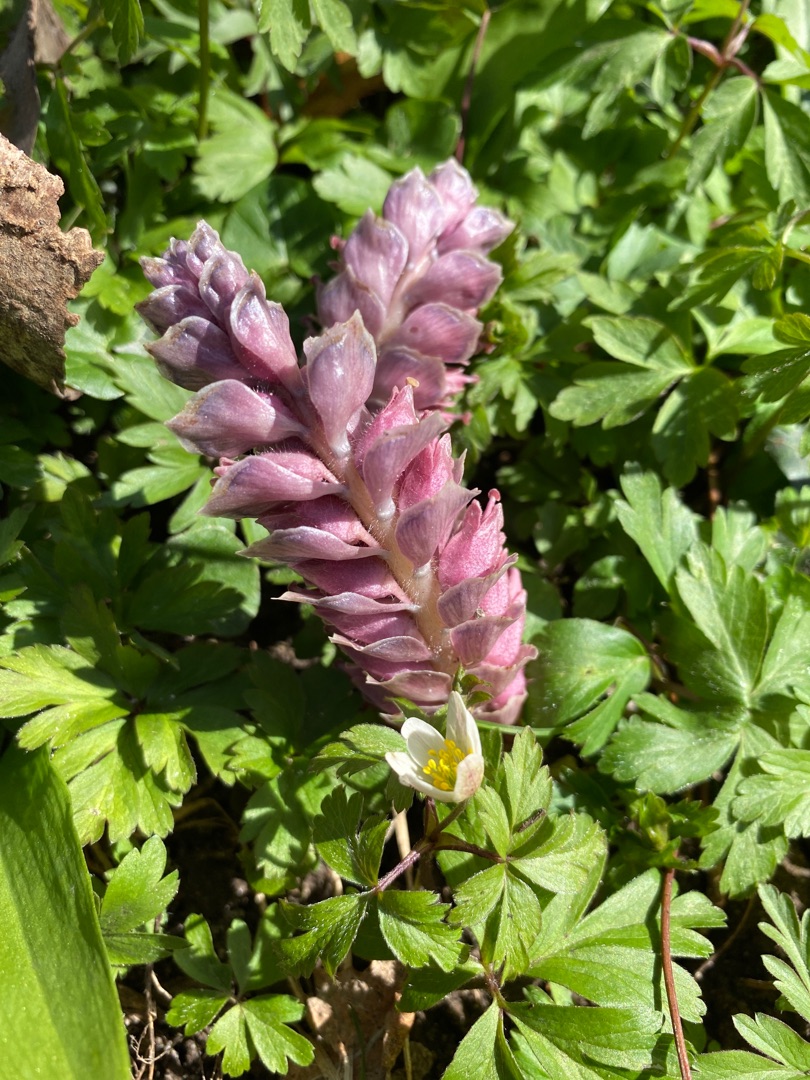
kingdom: Plantae
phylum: Tracheophyta
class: Magnoliopsida
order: Lamiales
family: Orobanchaceae
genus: Lathraea
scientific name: Lathraea squamaria
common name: Skælrod
